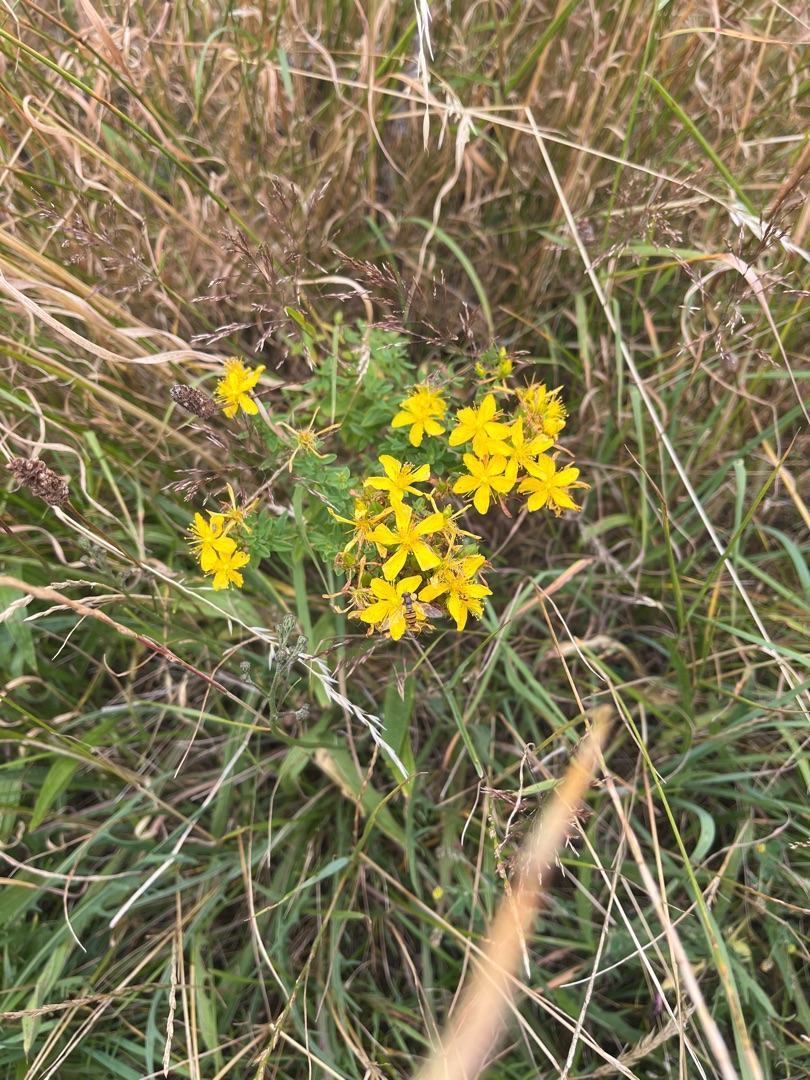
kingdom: Plantae
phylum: Tracheophyta
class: Magnoliopsida
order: Malpighiales
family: Hypericaceae
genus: Hypericum
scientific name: Hypericum perforatum
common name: Prikbladet perikon
